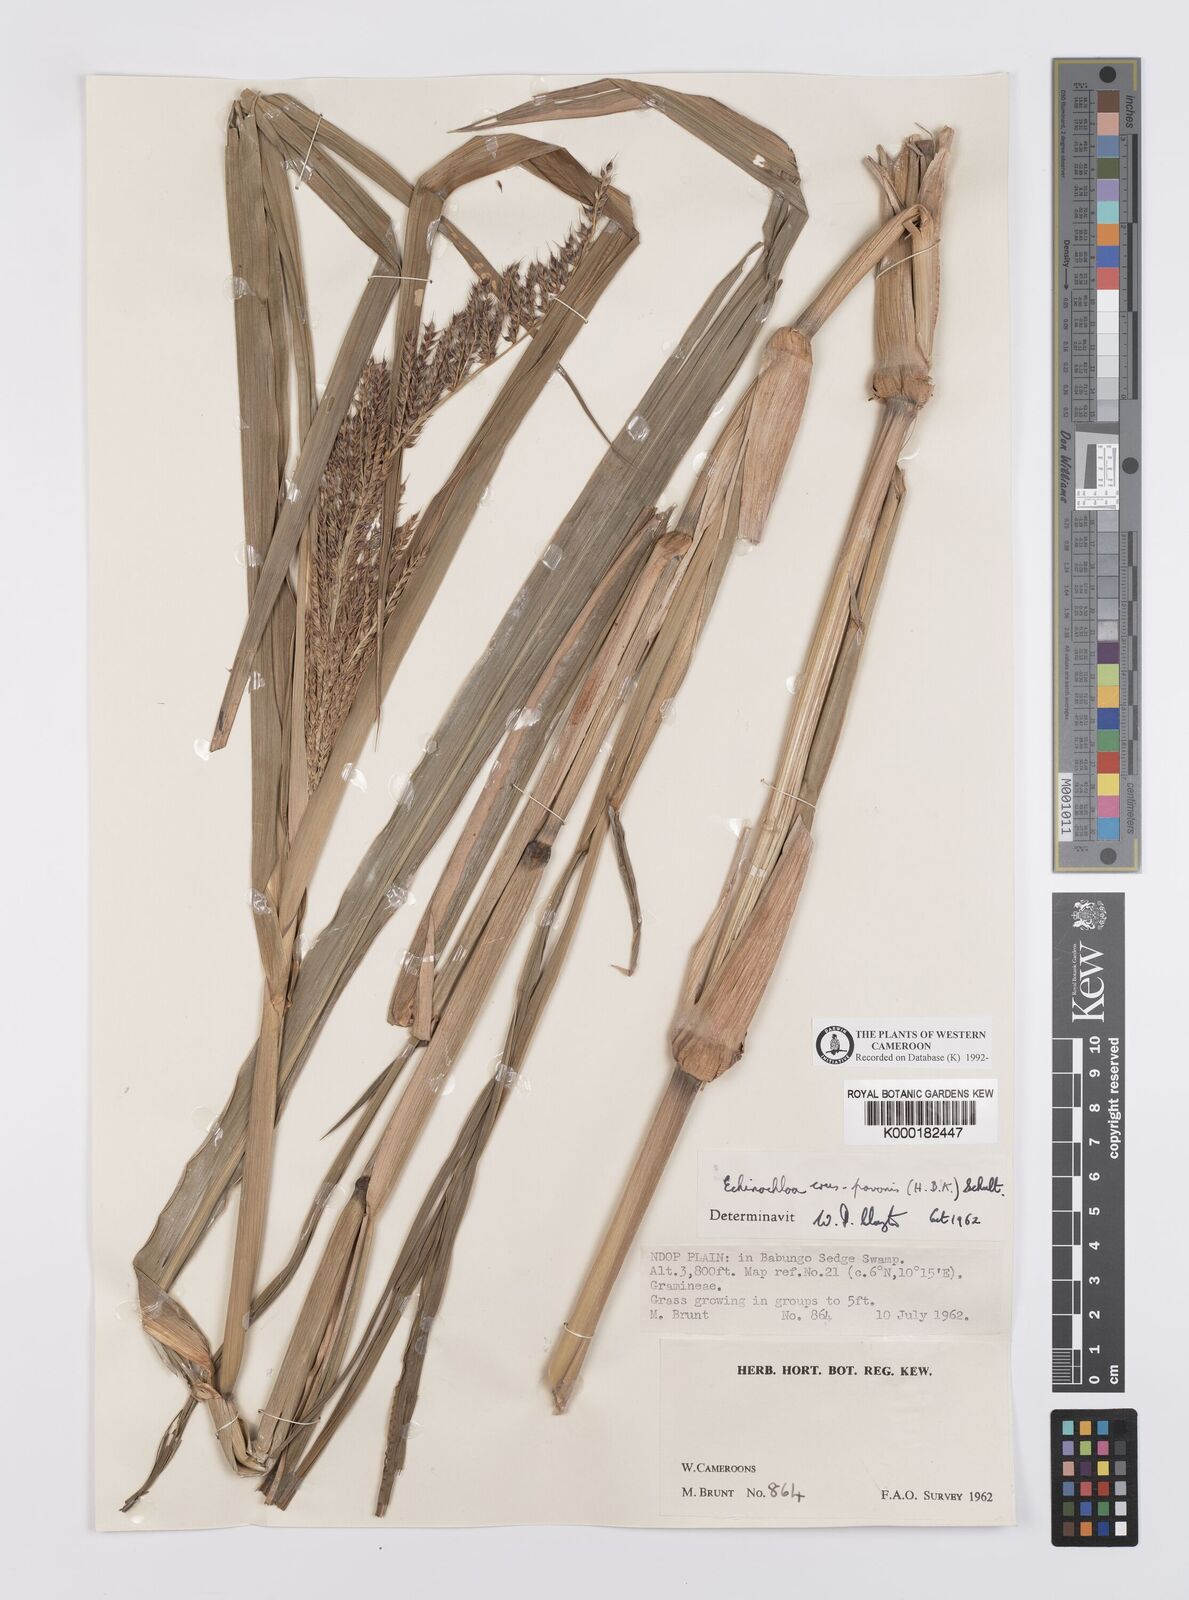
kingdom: Plantae
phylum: Tracheophyta
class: Liliopsida
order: Poales
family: Poaceae
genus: Echinochloa
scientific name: Echinochloa crus-pavonis
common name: Gulf cockspur grass
